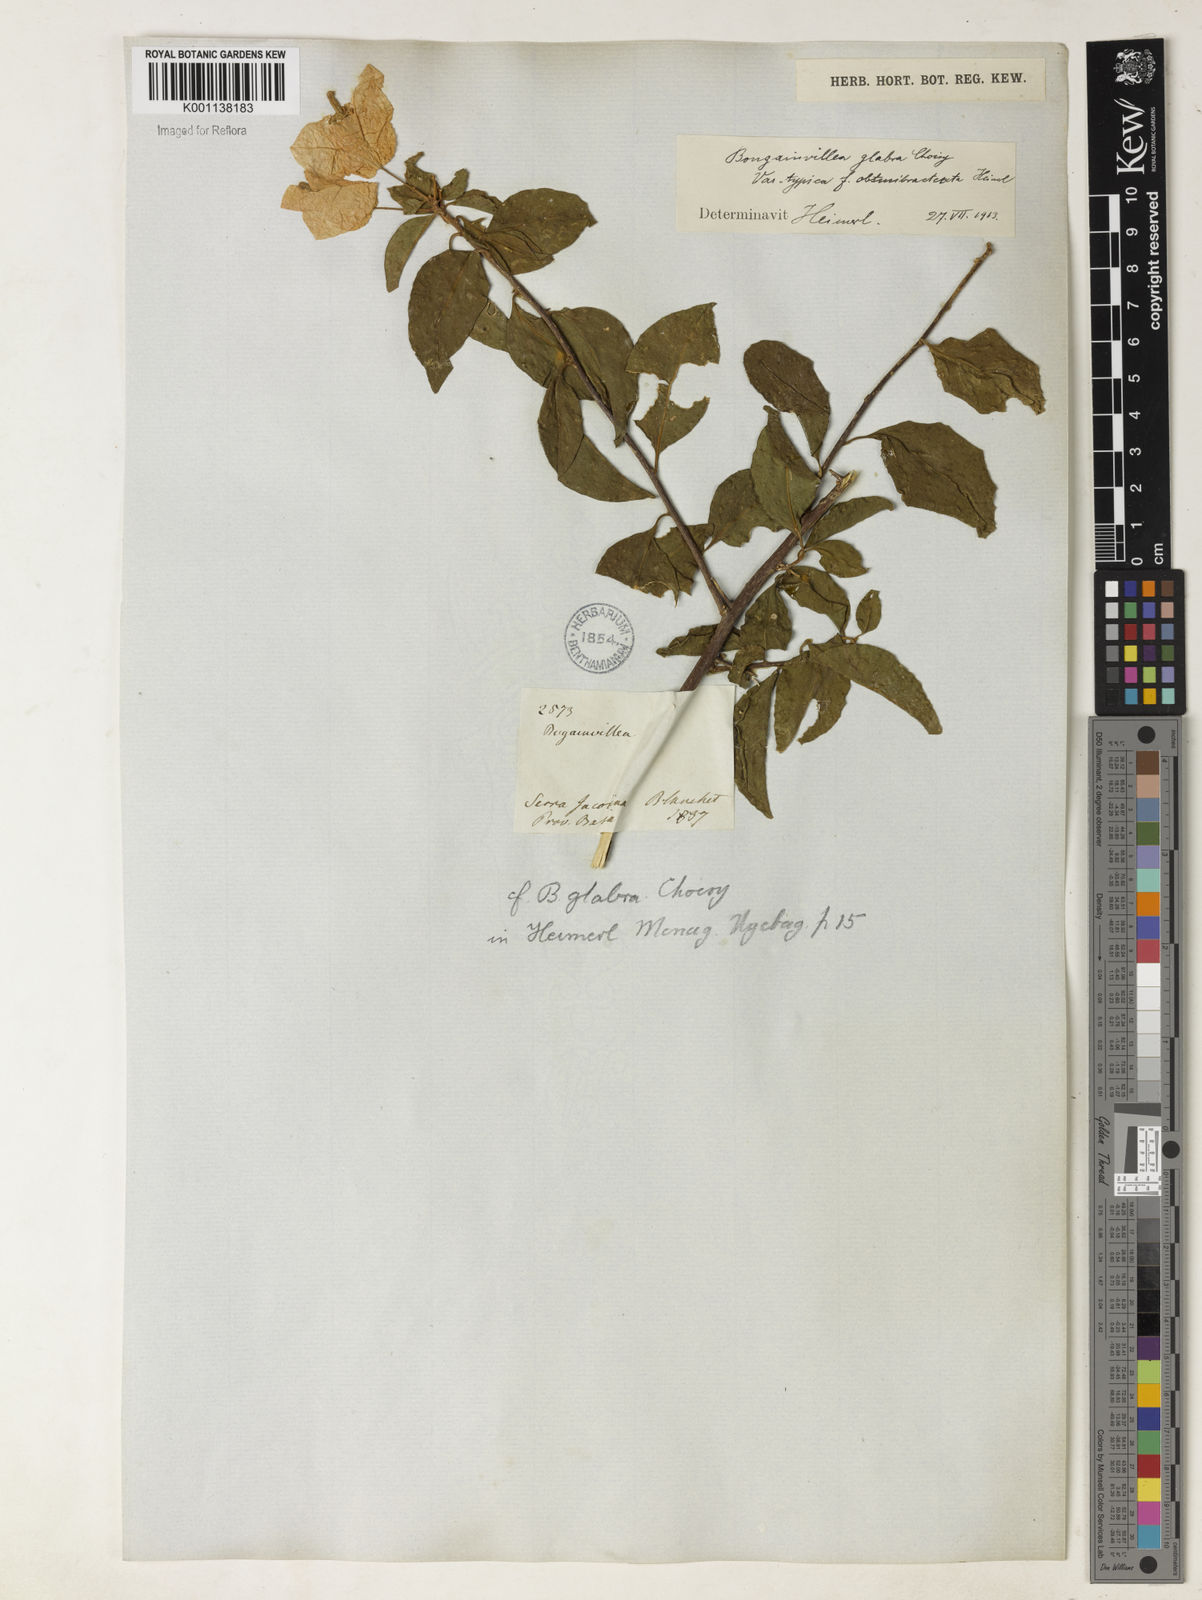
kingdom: Plantae
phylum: Tracheophyta
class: Magnoliopsida
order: Caryophyllales
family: Nyctaginaceae
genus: Bougainvillea
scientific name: Bougainvillea glabra
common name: Paperflower
